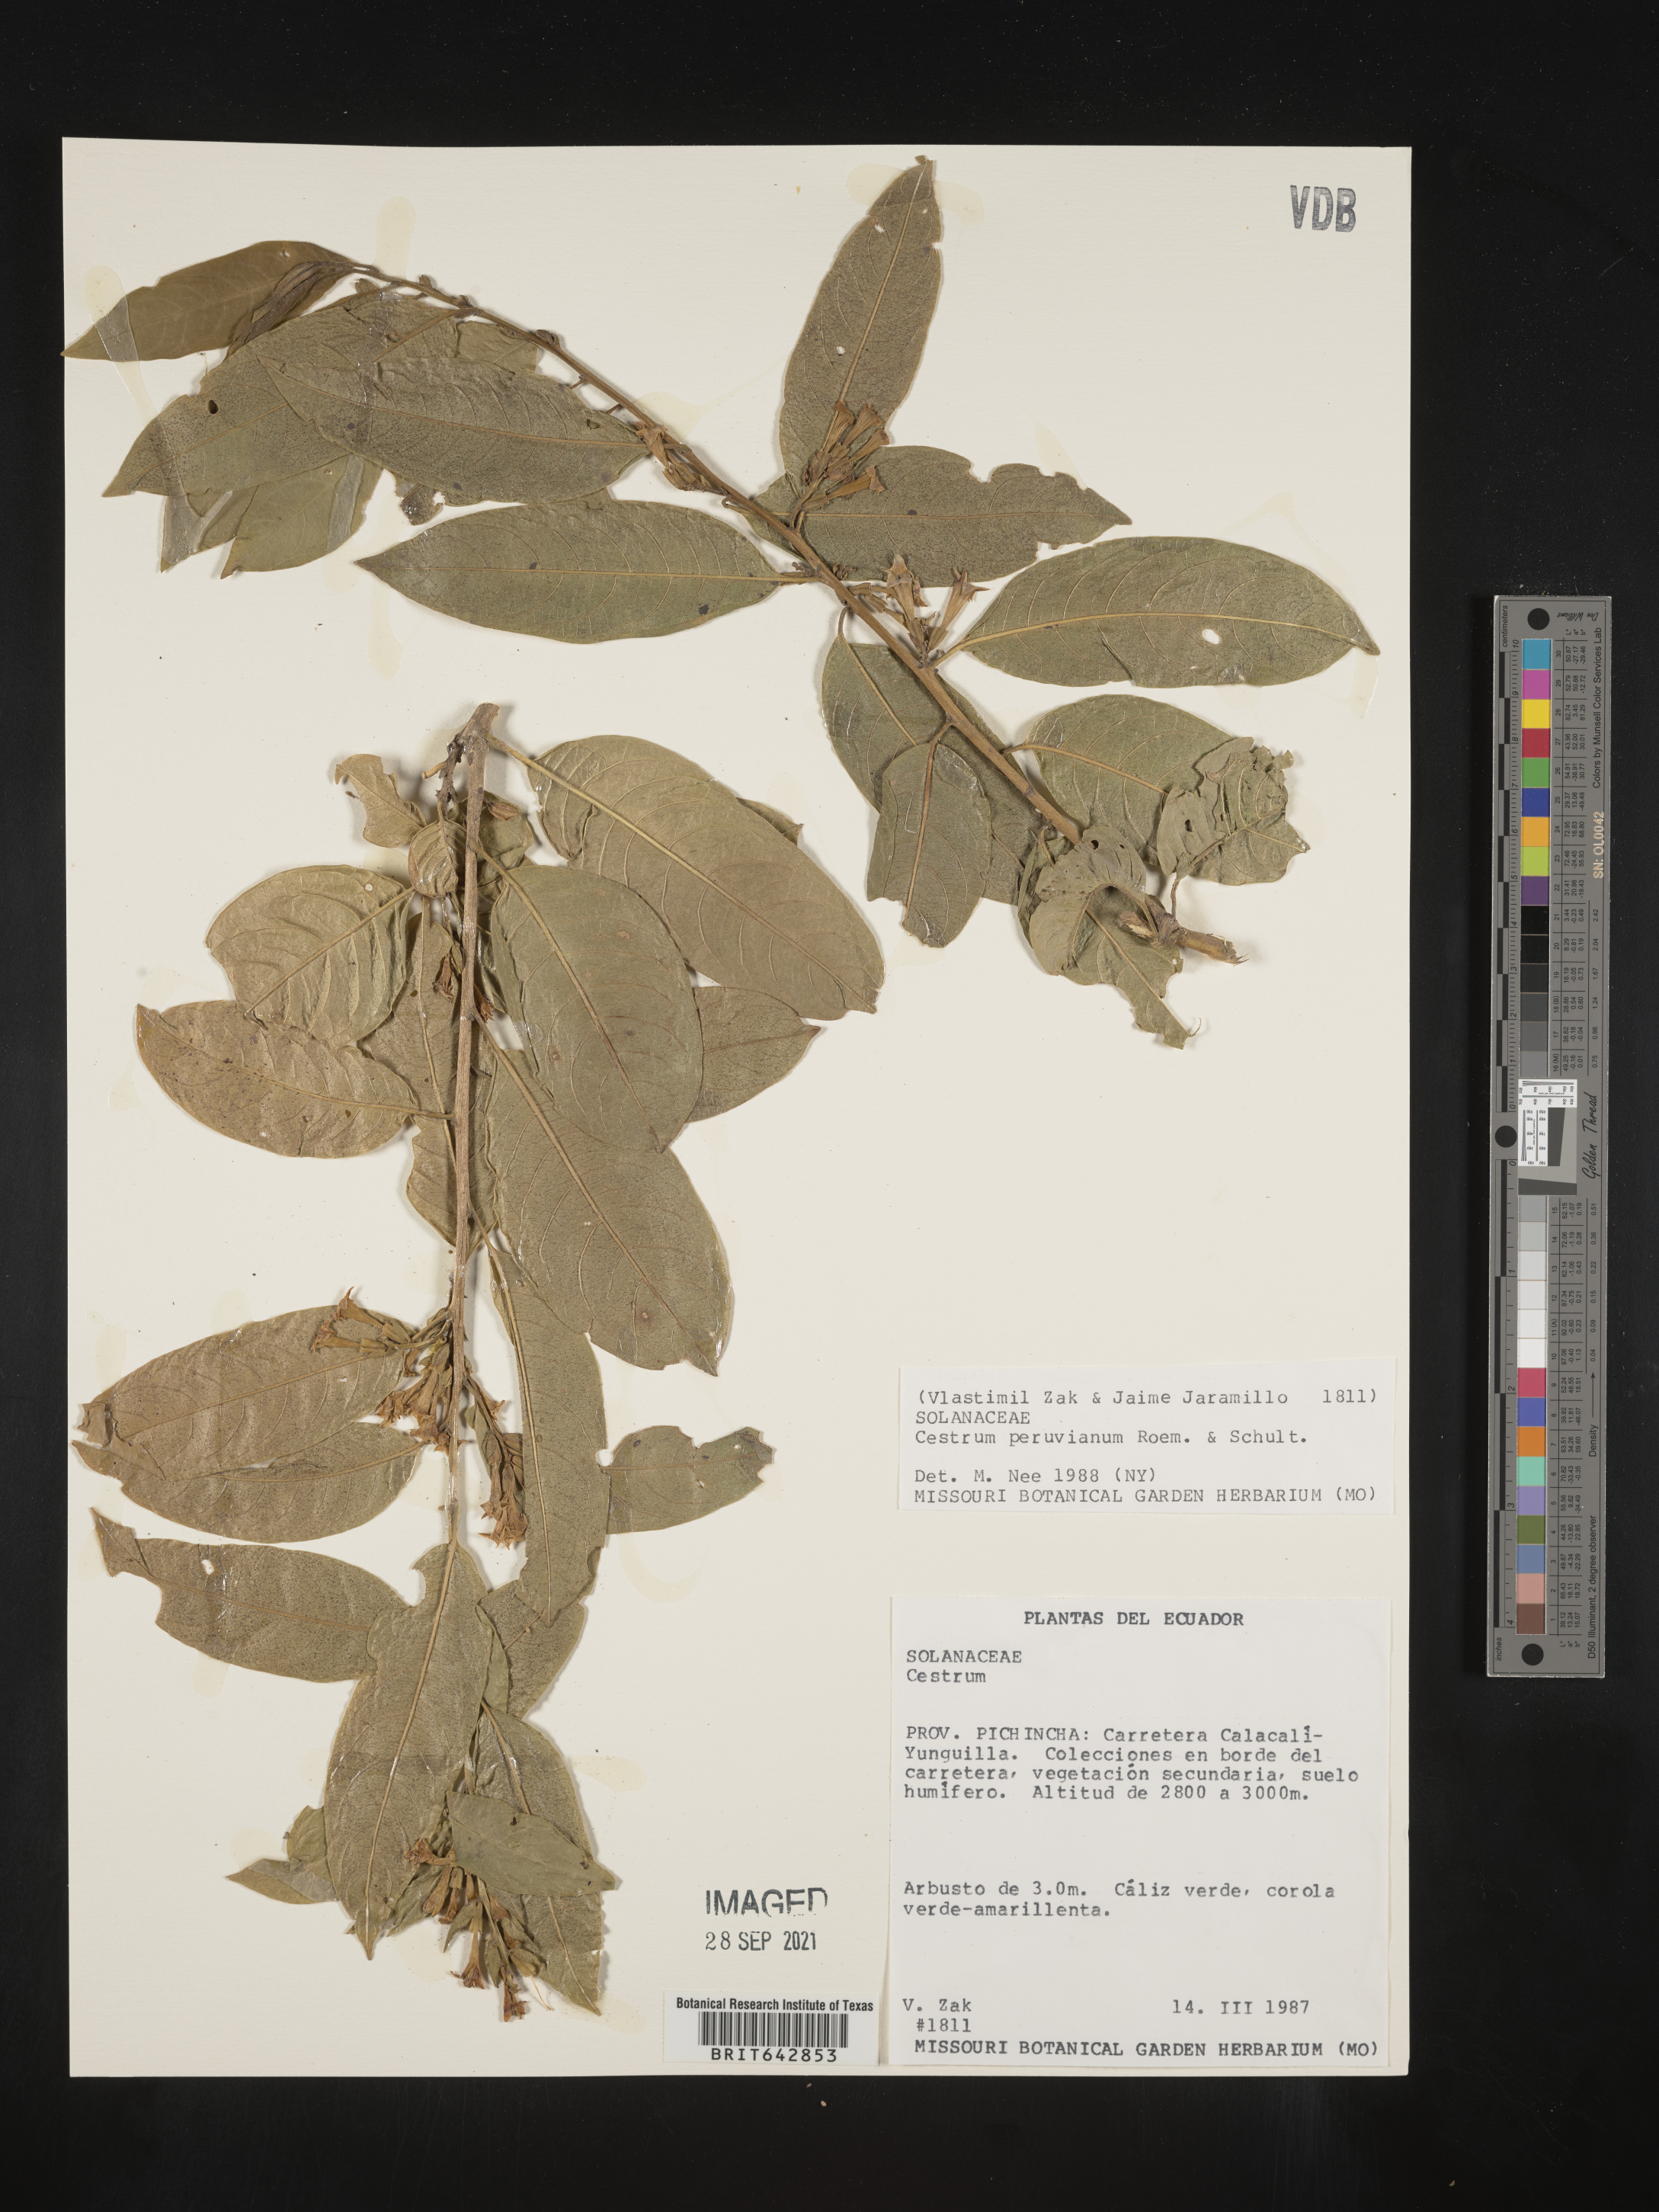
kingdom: Plantae
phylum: Tracheophyta
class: Magnoliopsida
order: Solanales
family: Solanaceae
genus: Cestrum
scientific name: Cestrum
